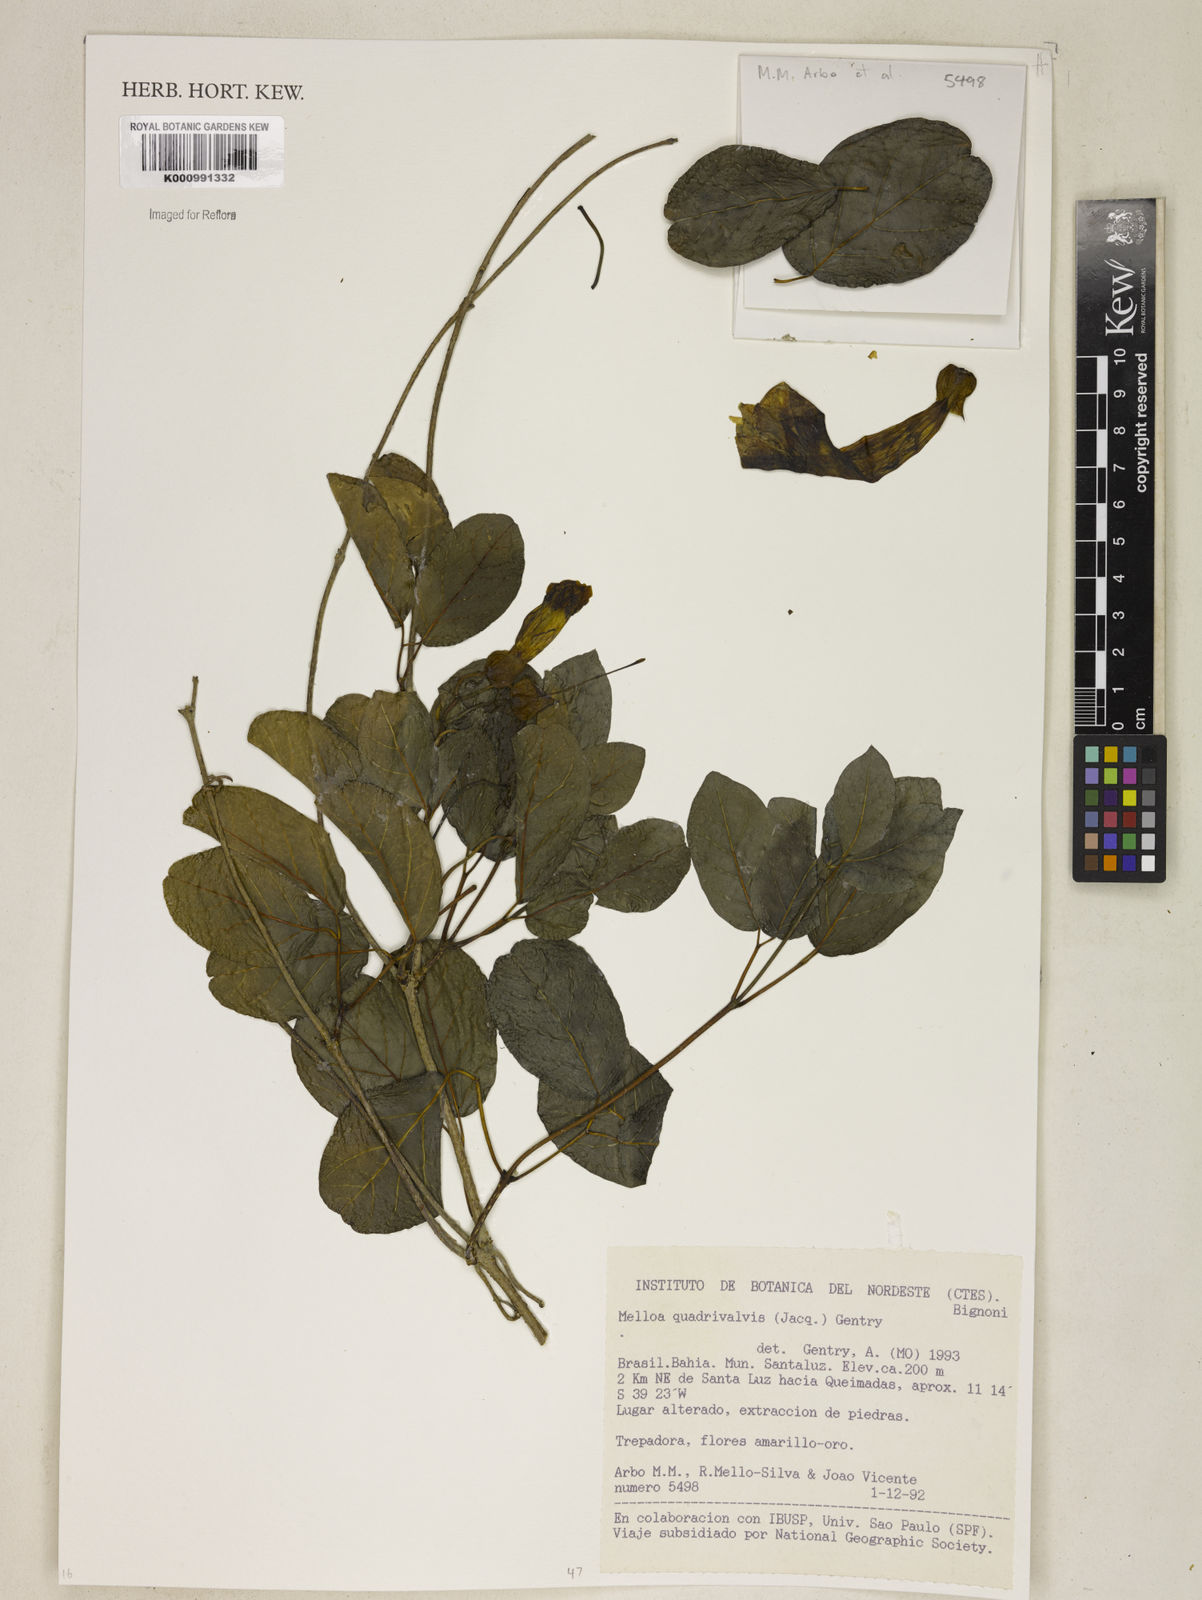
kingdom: Plantae
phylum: Tracheophyta
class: Magnoliopsida
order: Lamiales
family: Bignoniaceae
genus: Dolichandra
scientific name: Dolichandra quadrivalvis
